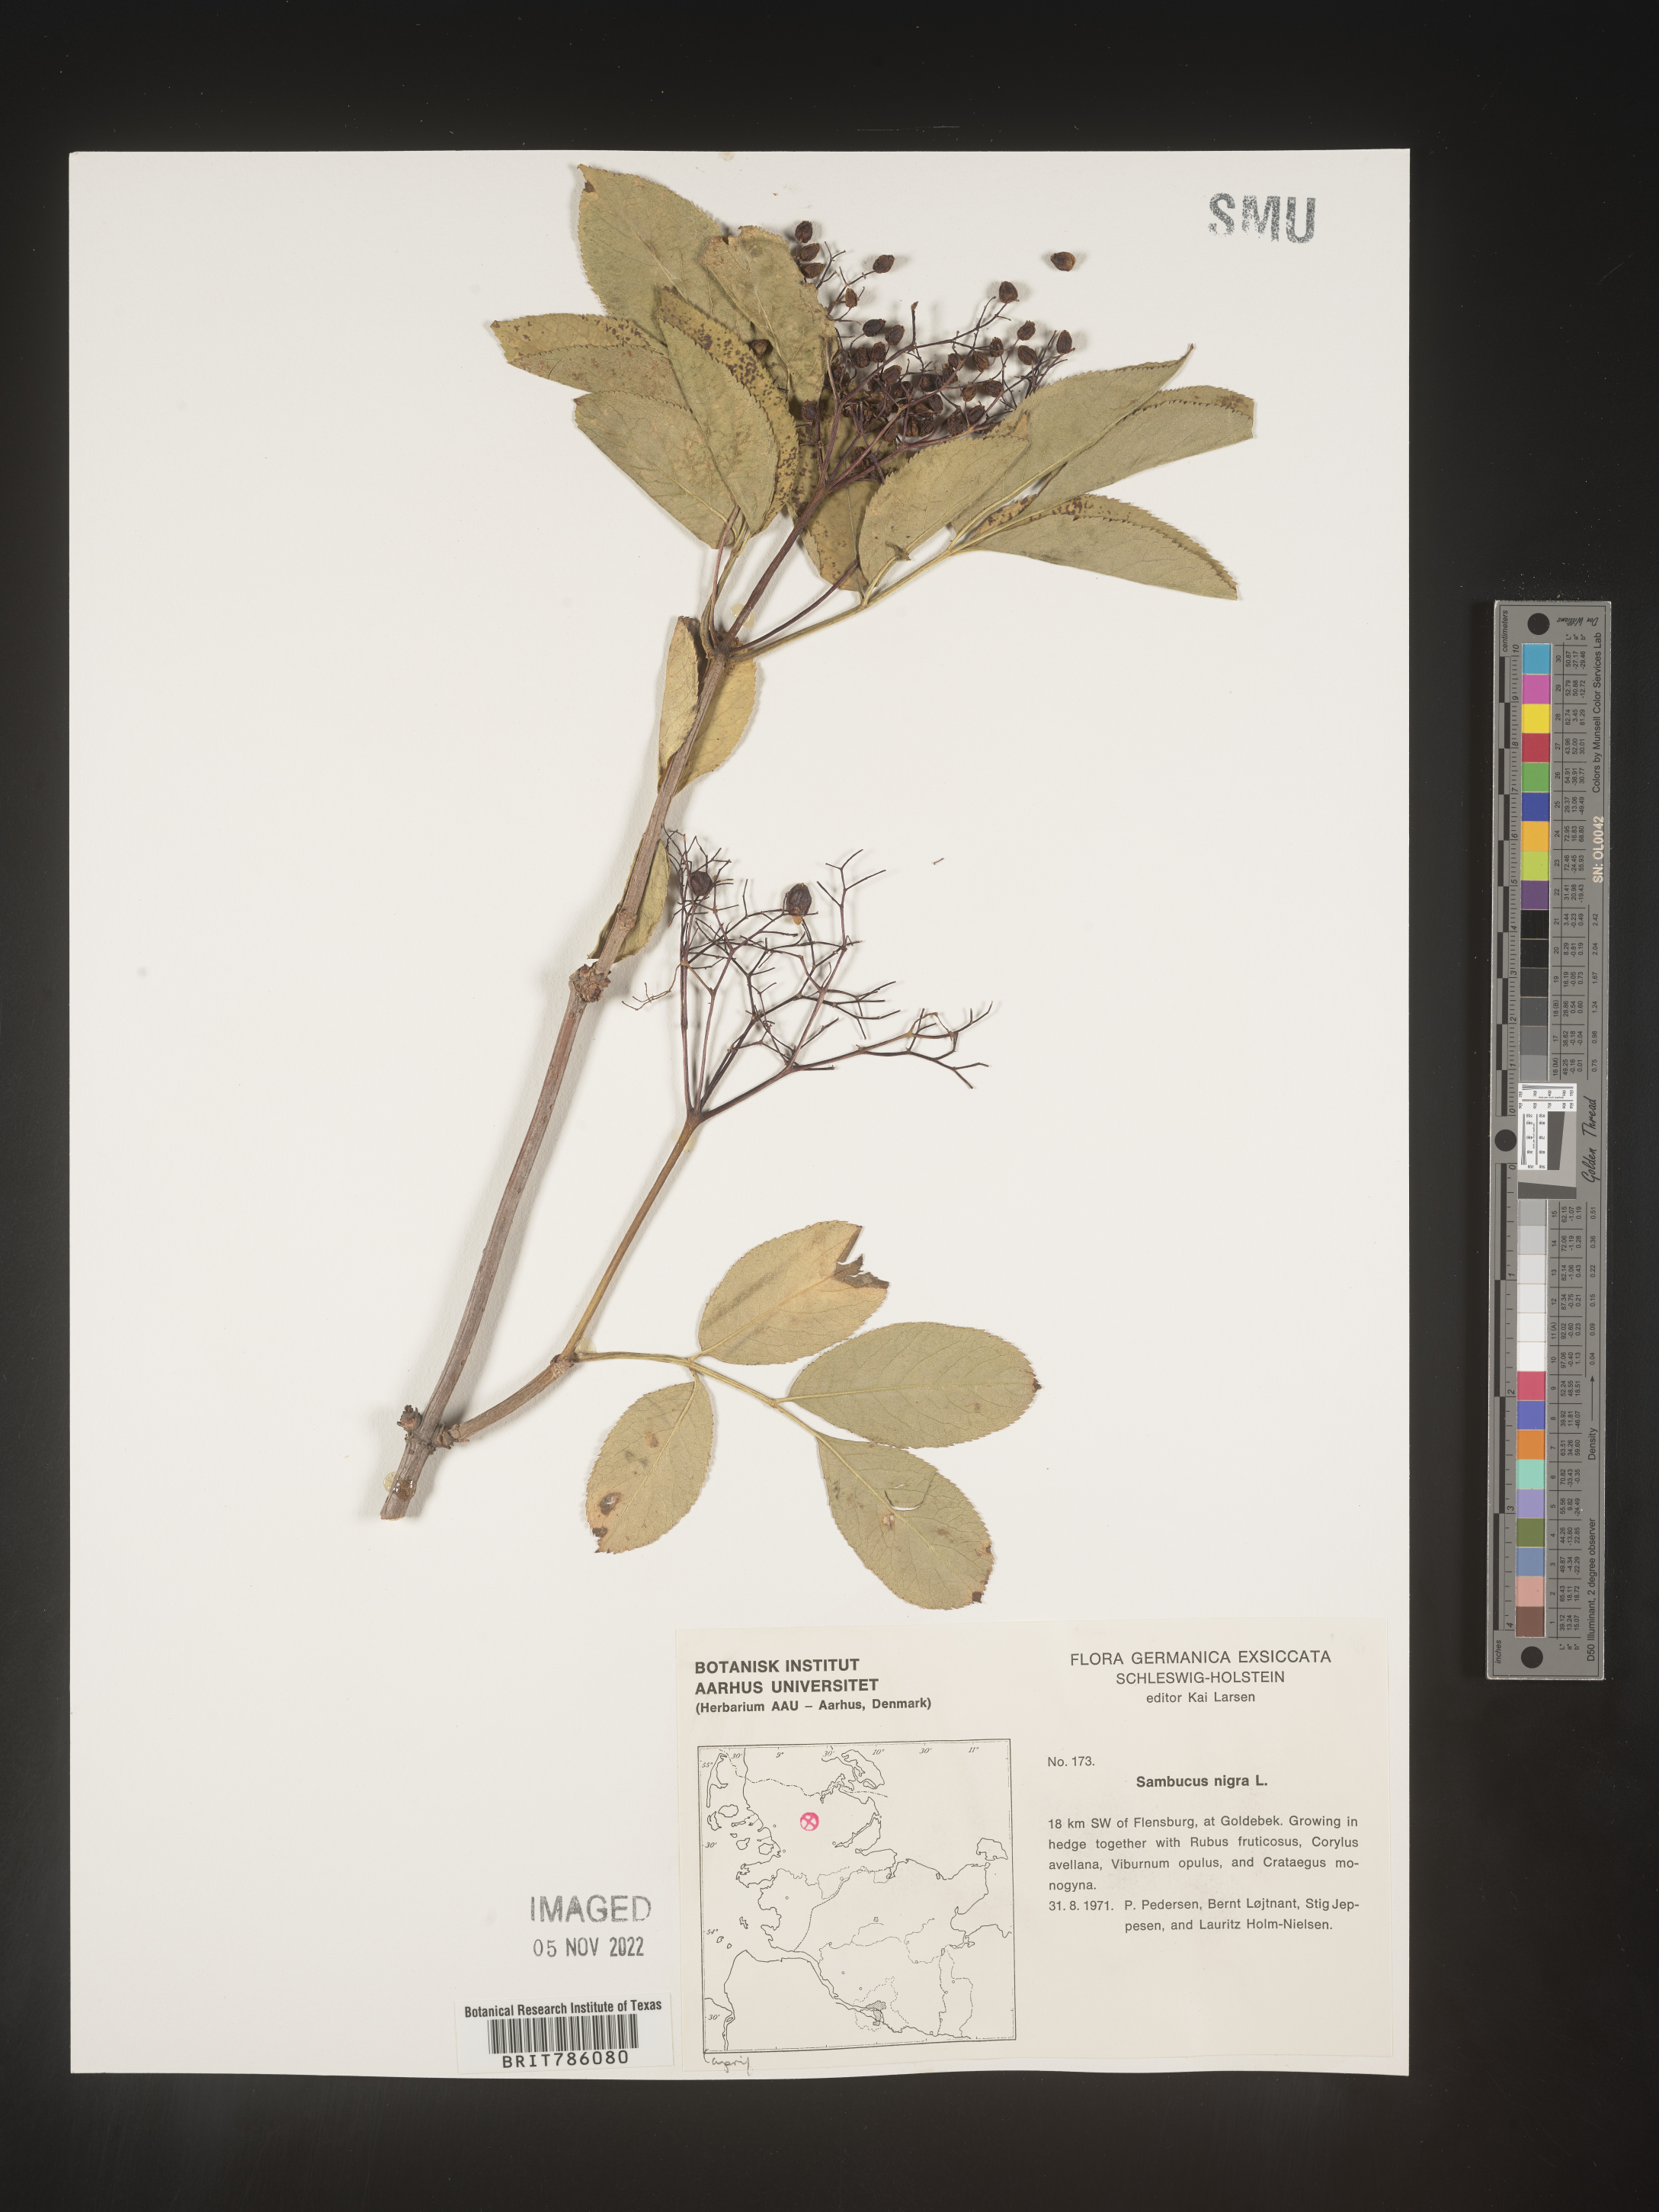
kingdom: Plantae
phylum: Tracheophyta
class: Magnoliopsida
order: Dipsacales
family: Viburnaceae
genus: Sambucus
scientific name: Sambucus
